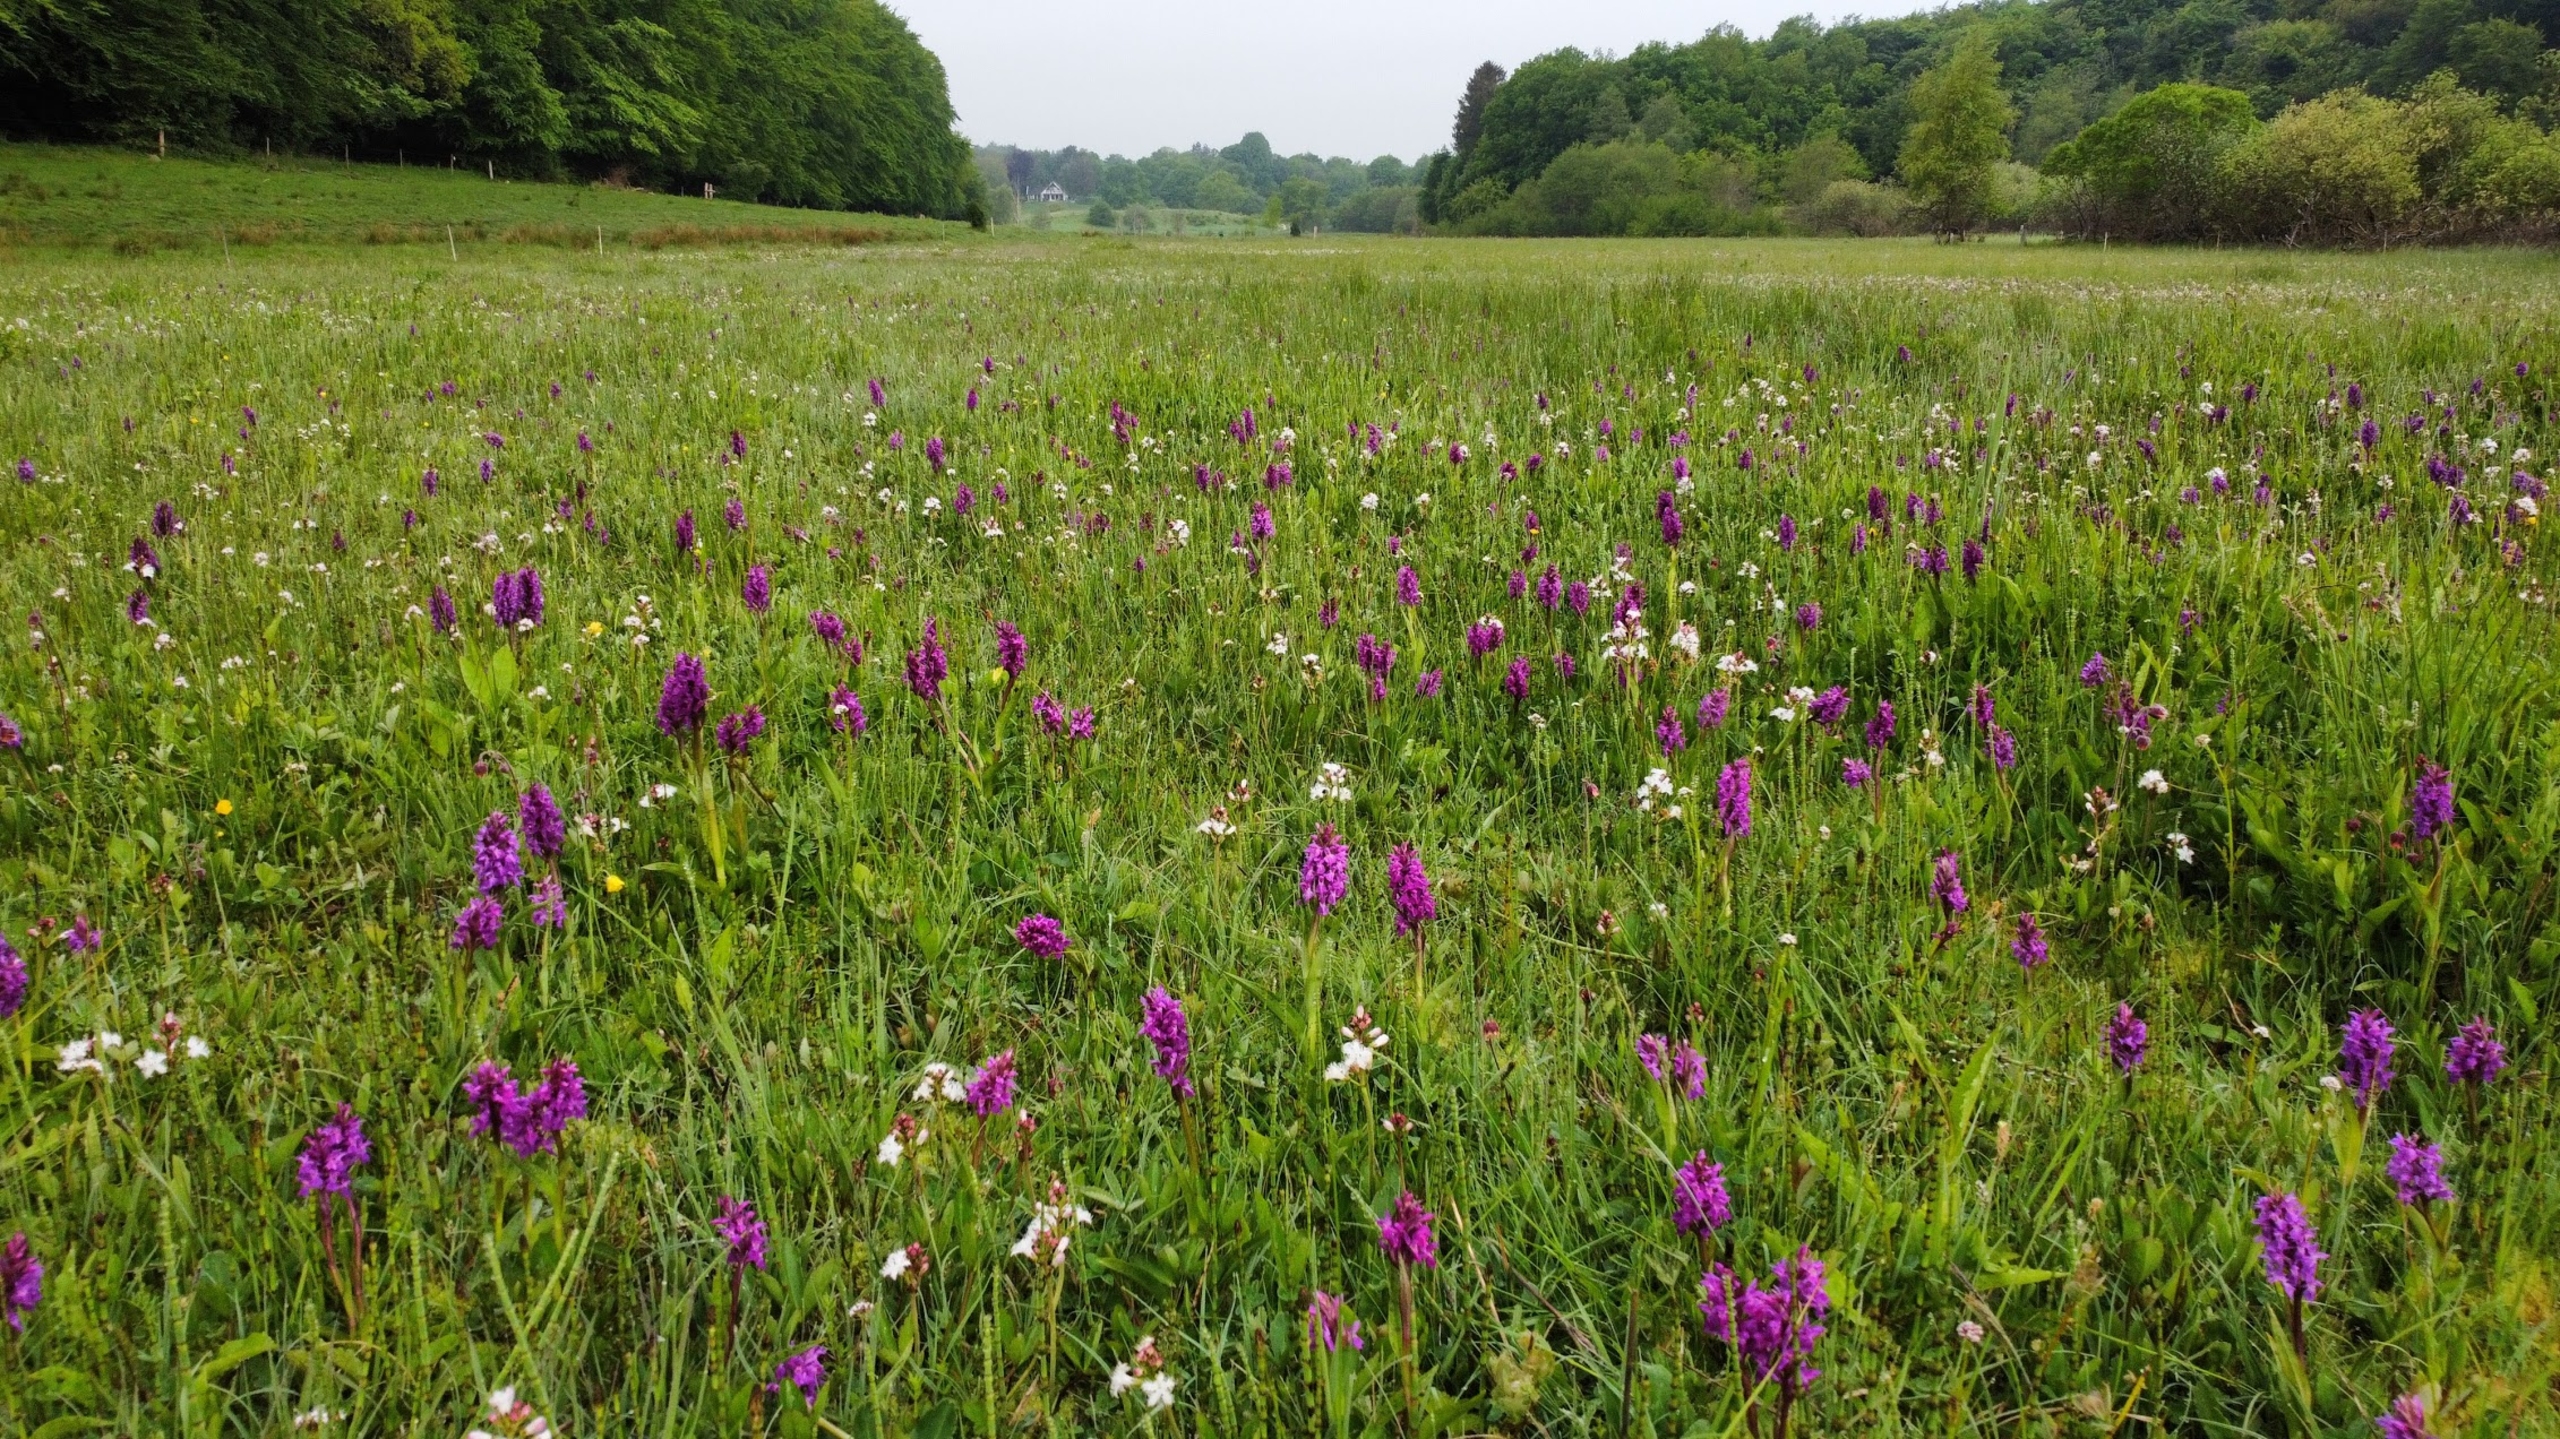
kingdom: Plantae
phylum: Tracheophyta
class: Liliopsida
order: Asparagales
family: Orchidaceae
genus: Dactylorhiza
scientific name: Dactylorhiza majalis
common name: Maj-gøgeurt
